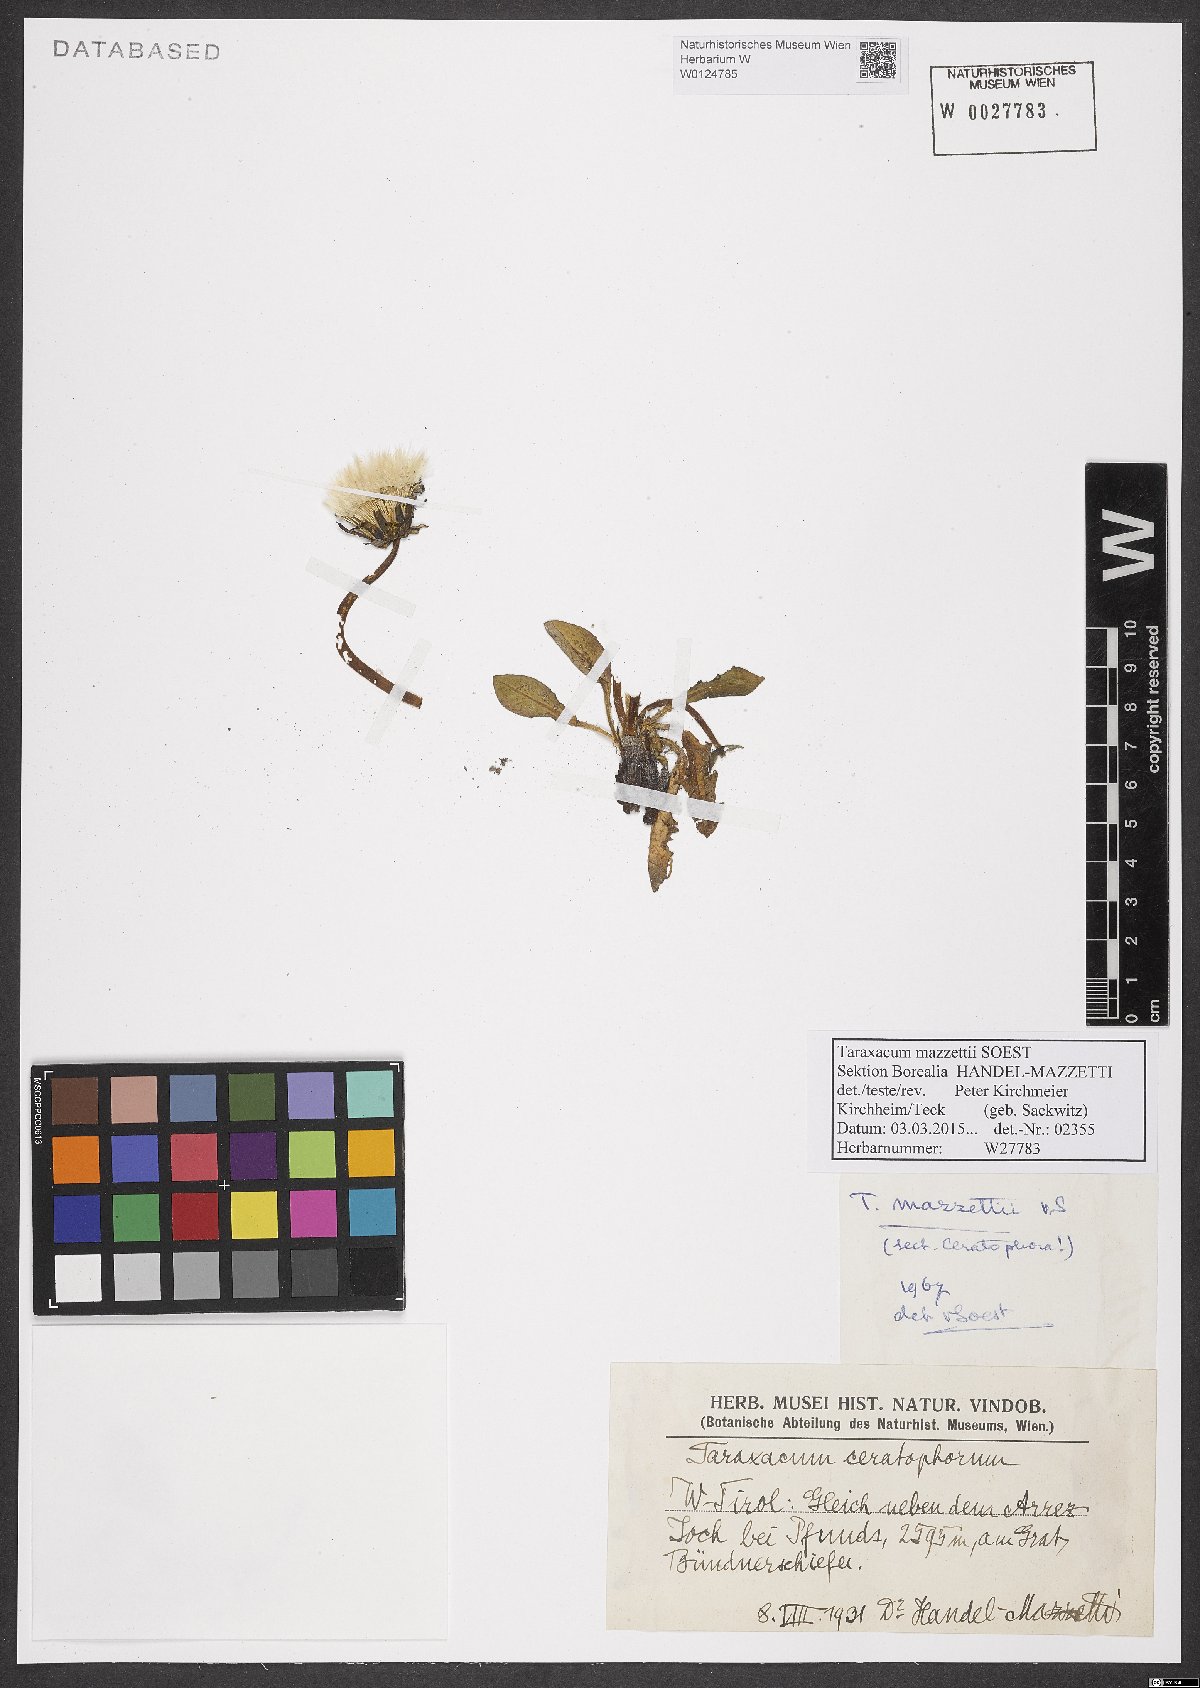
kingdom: Plantae
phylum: Tracheophyta
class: Magnoliopsida
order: Asterales
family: Asteraceae
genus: Taraxacum
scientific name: Taraxacum mazzetii
